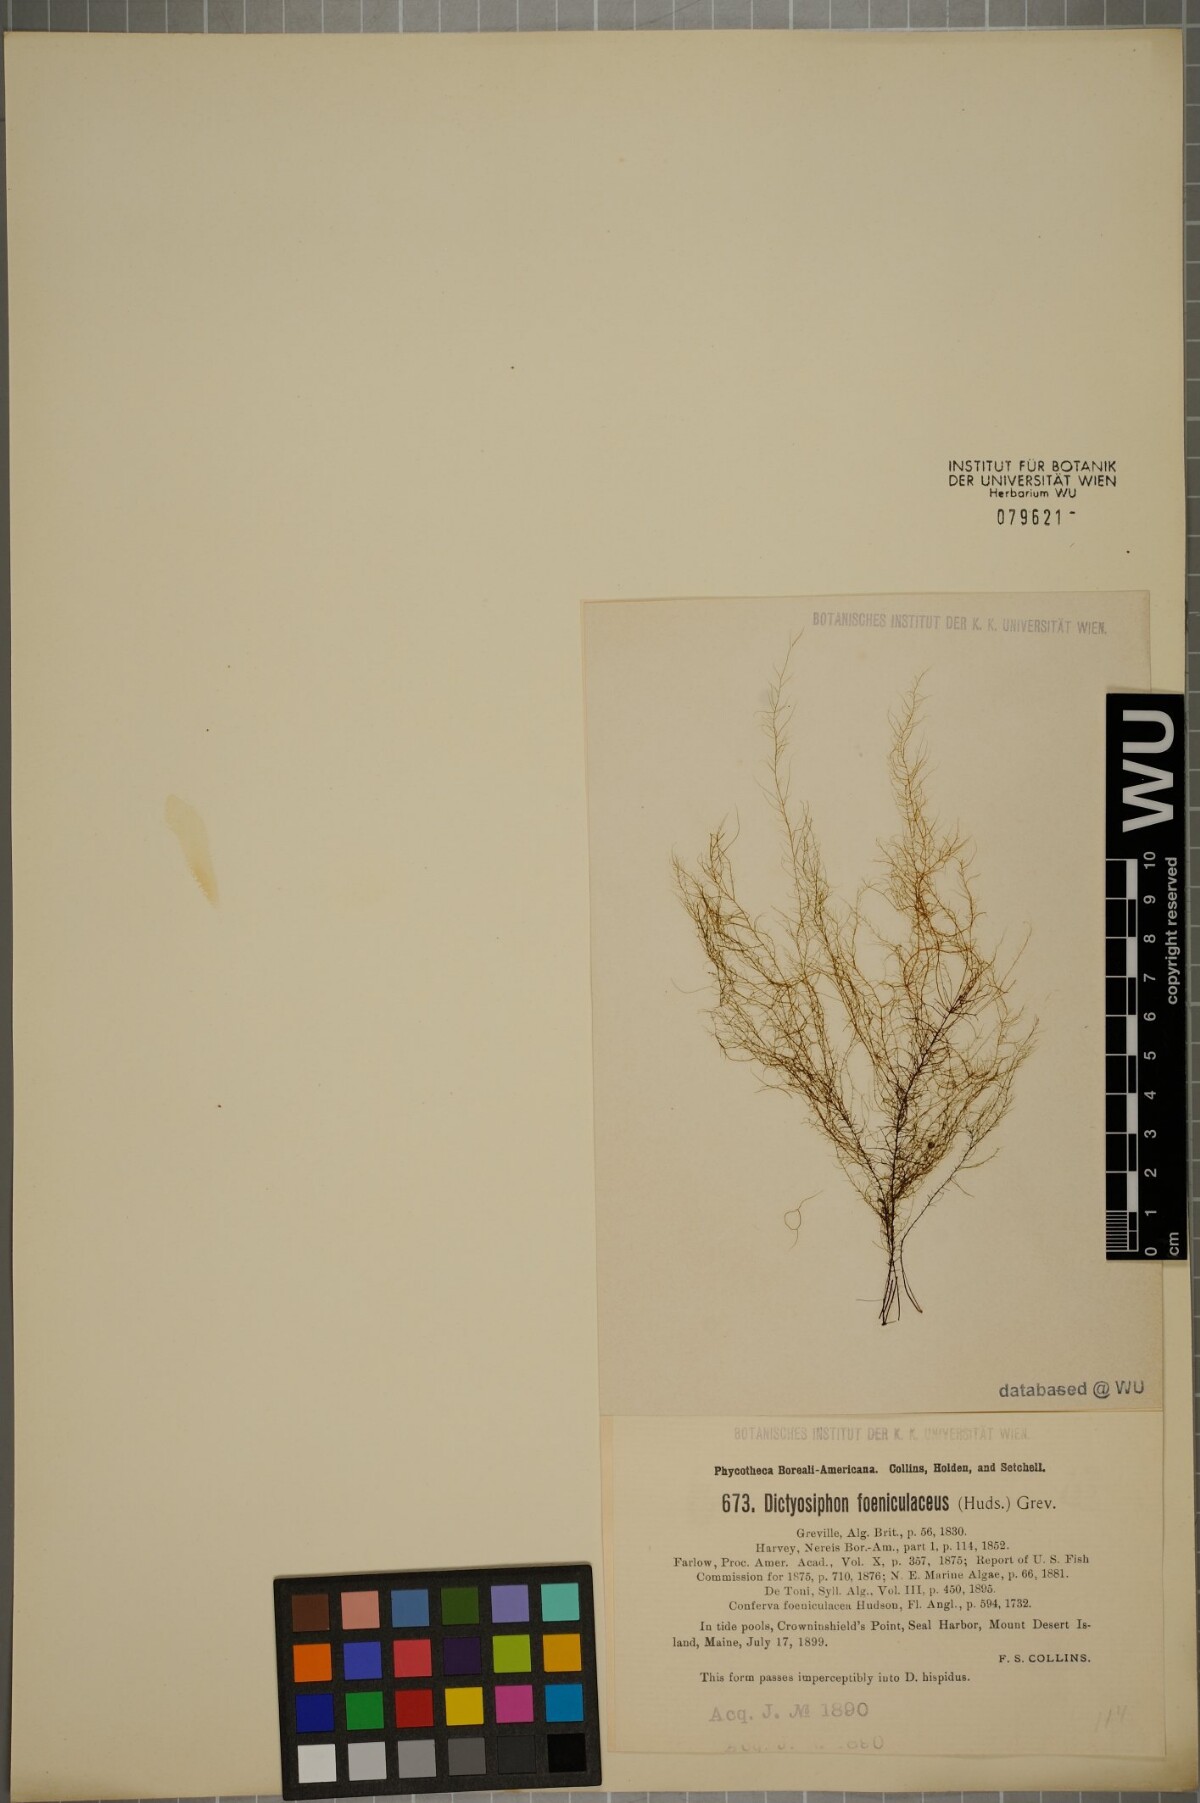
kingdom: Chromista
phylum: Ochrophyta
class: Phaeophyceae
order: Ectocarpales
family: Chordariaceae
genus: Dictyosiphon
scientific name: Dictyosiphon foeniculaceus
